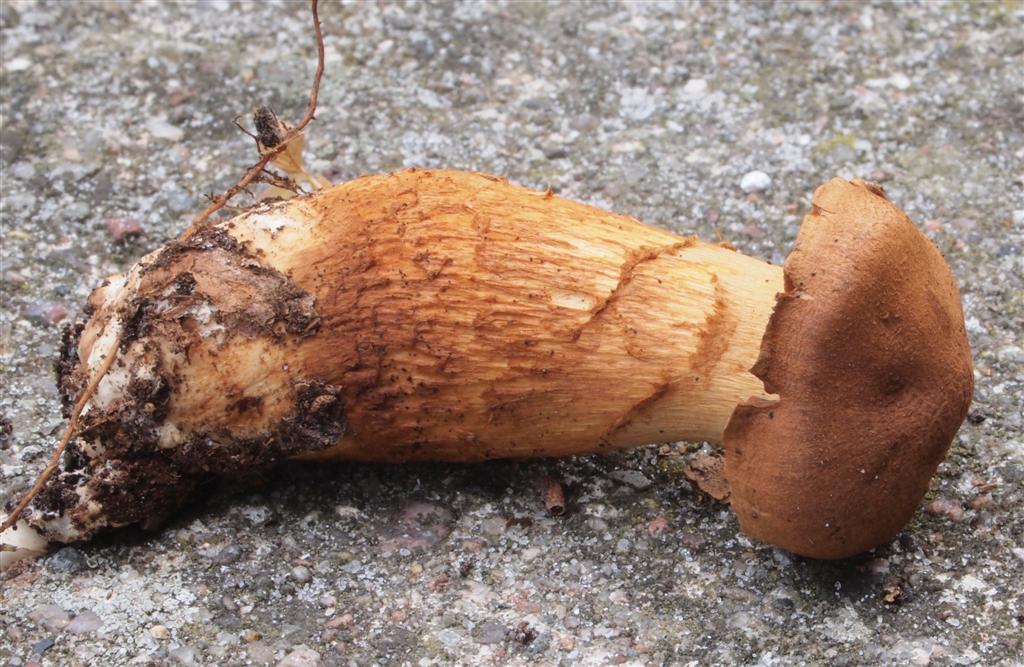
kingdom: Fungi
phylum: Basidiomycota
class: Agaricomycetes
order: Agaricales
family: Cortinariaceae
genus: Cortinarius
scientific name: Cortinarius rubellus
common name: puklet gift-slørhat
